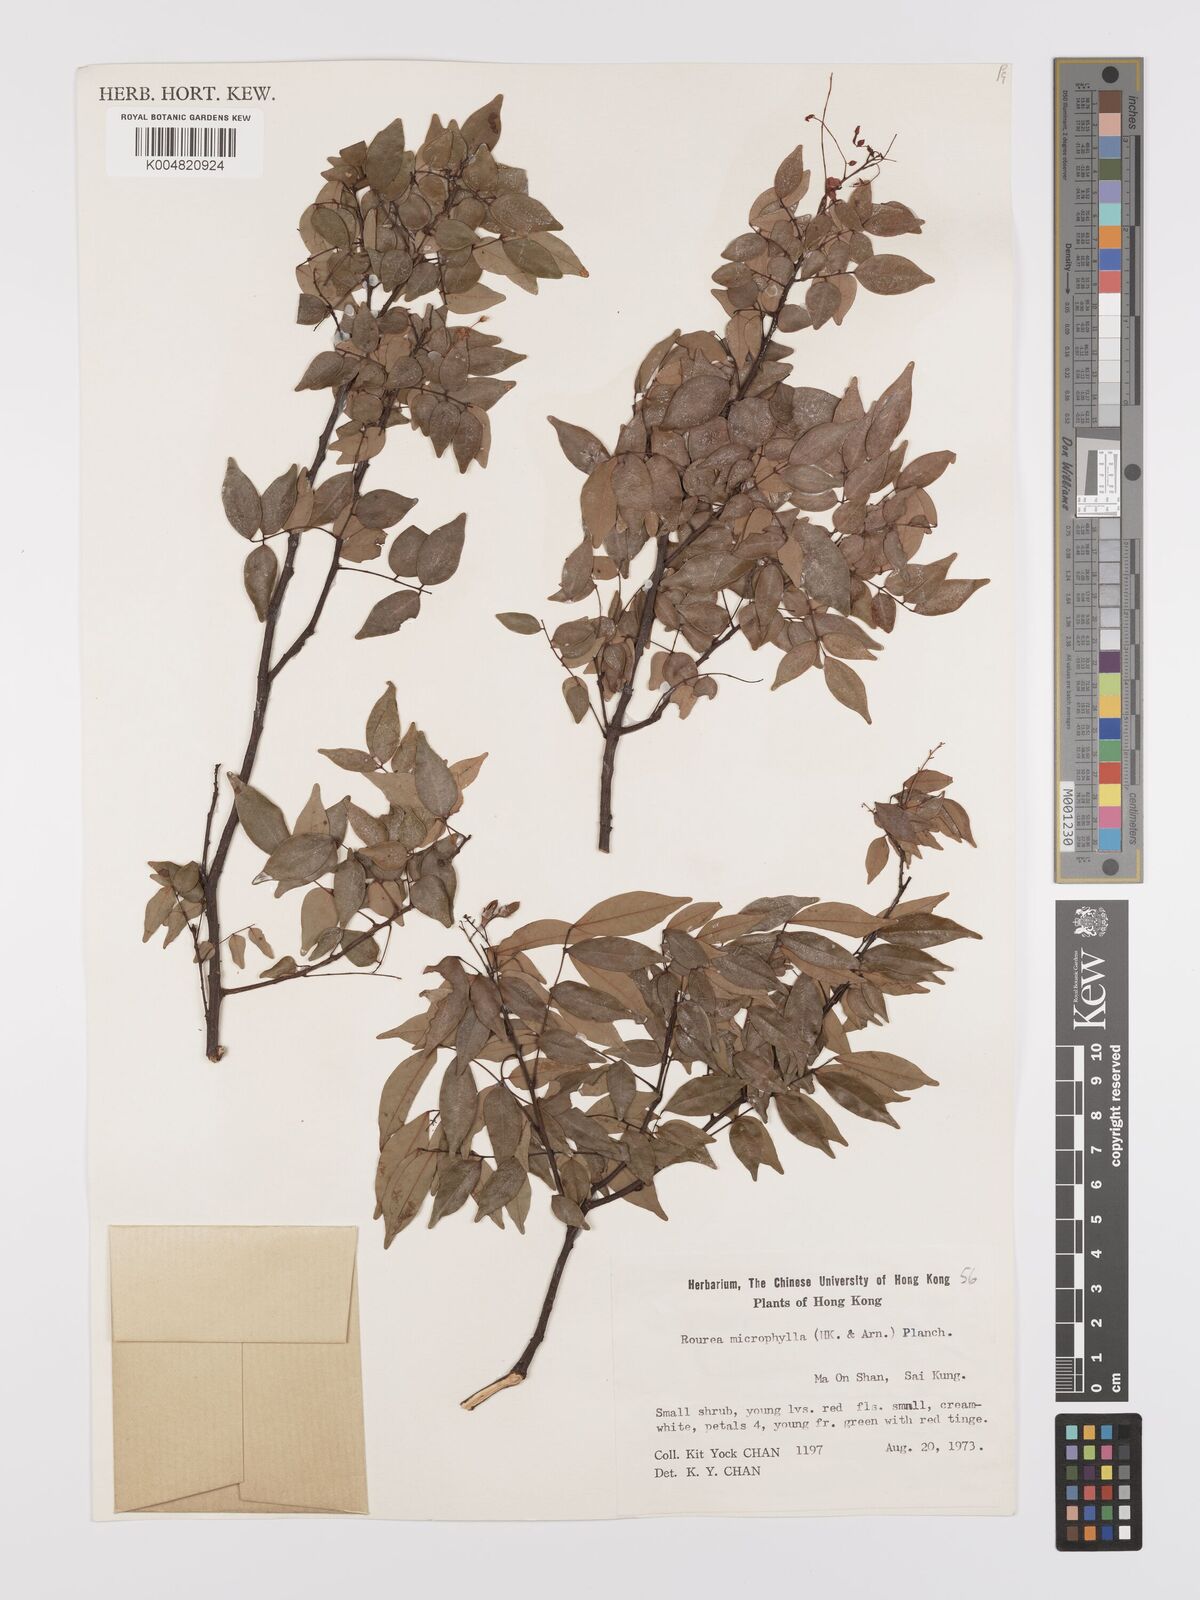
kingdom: Plantae
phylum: Tracheophyta
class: Magnoliopsida
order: Oxalidales
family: Connaraceae
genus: Rourea
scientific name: Rourea microphylla
